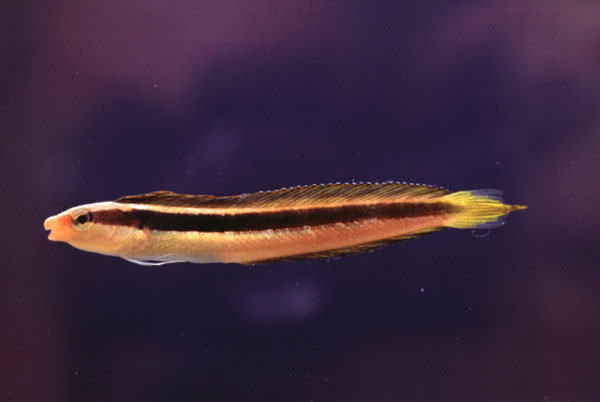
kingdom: Animalia
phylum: Chordata
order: Perciformes
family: Blenniidae
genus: Aspidontus
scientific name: Aspidontus dussumieri
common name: Lance blenny
